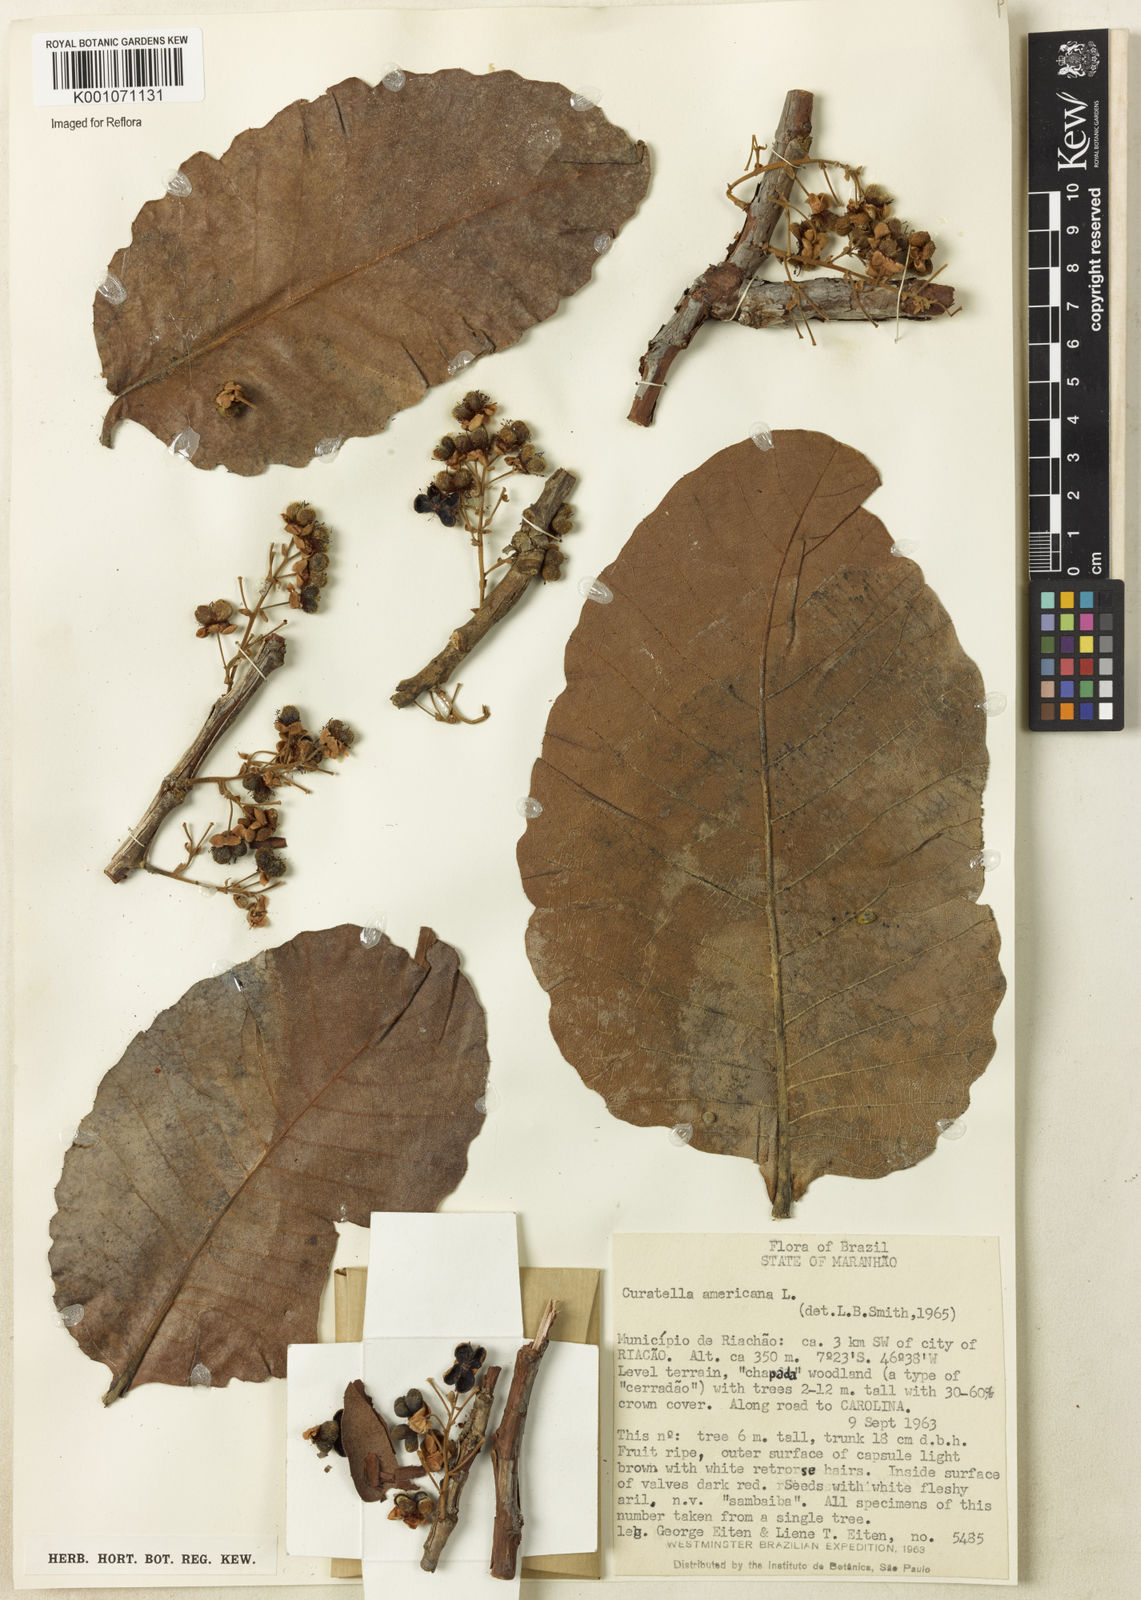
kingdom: Plantae
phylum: Tracheophyta
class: Magnoliopsida
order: Dilleniales
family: Dilleniaceae
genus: Curatella
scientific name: Curatella americana
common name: Sandpaper tree
